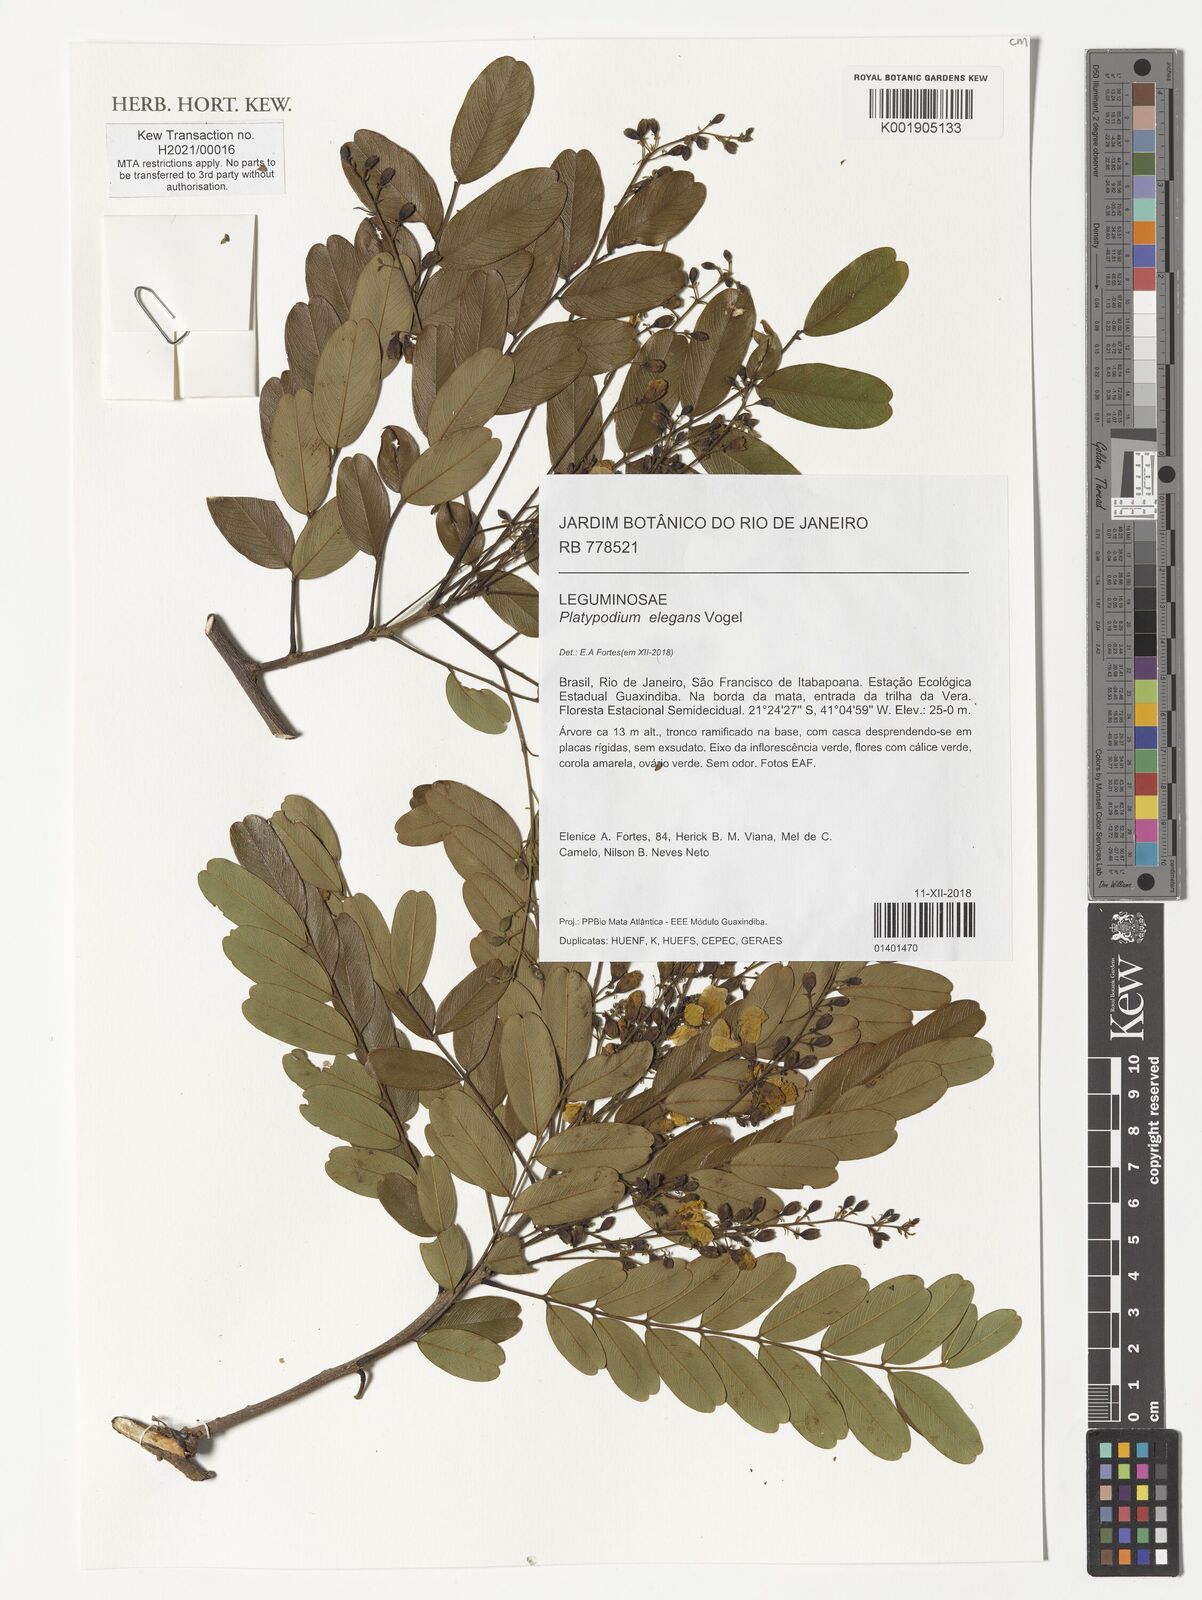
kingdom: Plantae
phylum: Tracheophyta
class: Magnoliopsida
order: Fabales
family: Fabaceae
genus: Platypodium
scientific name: Platypodium elegans
